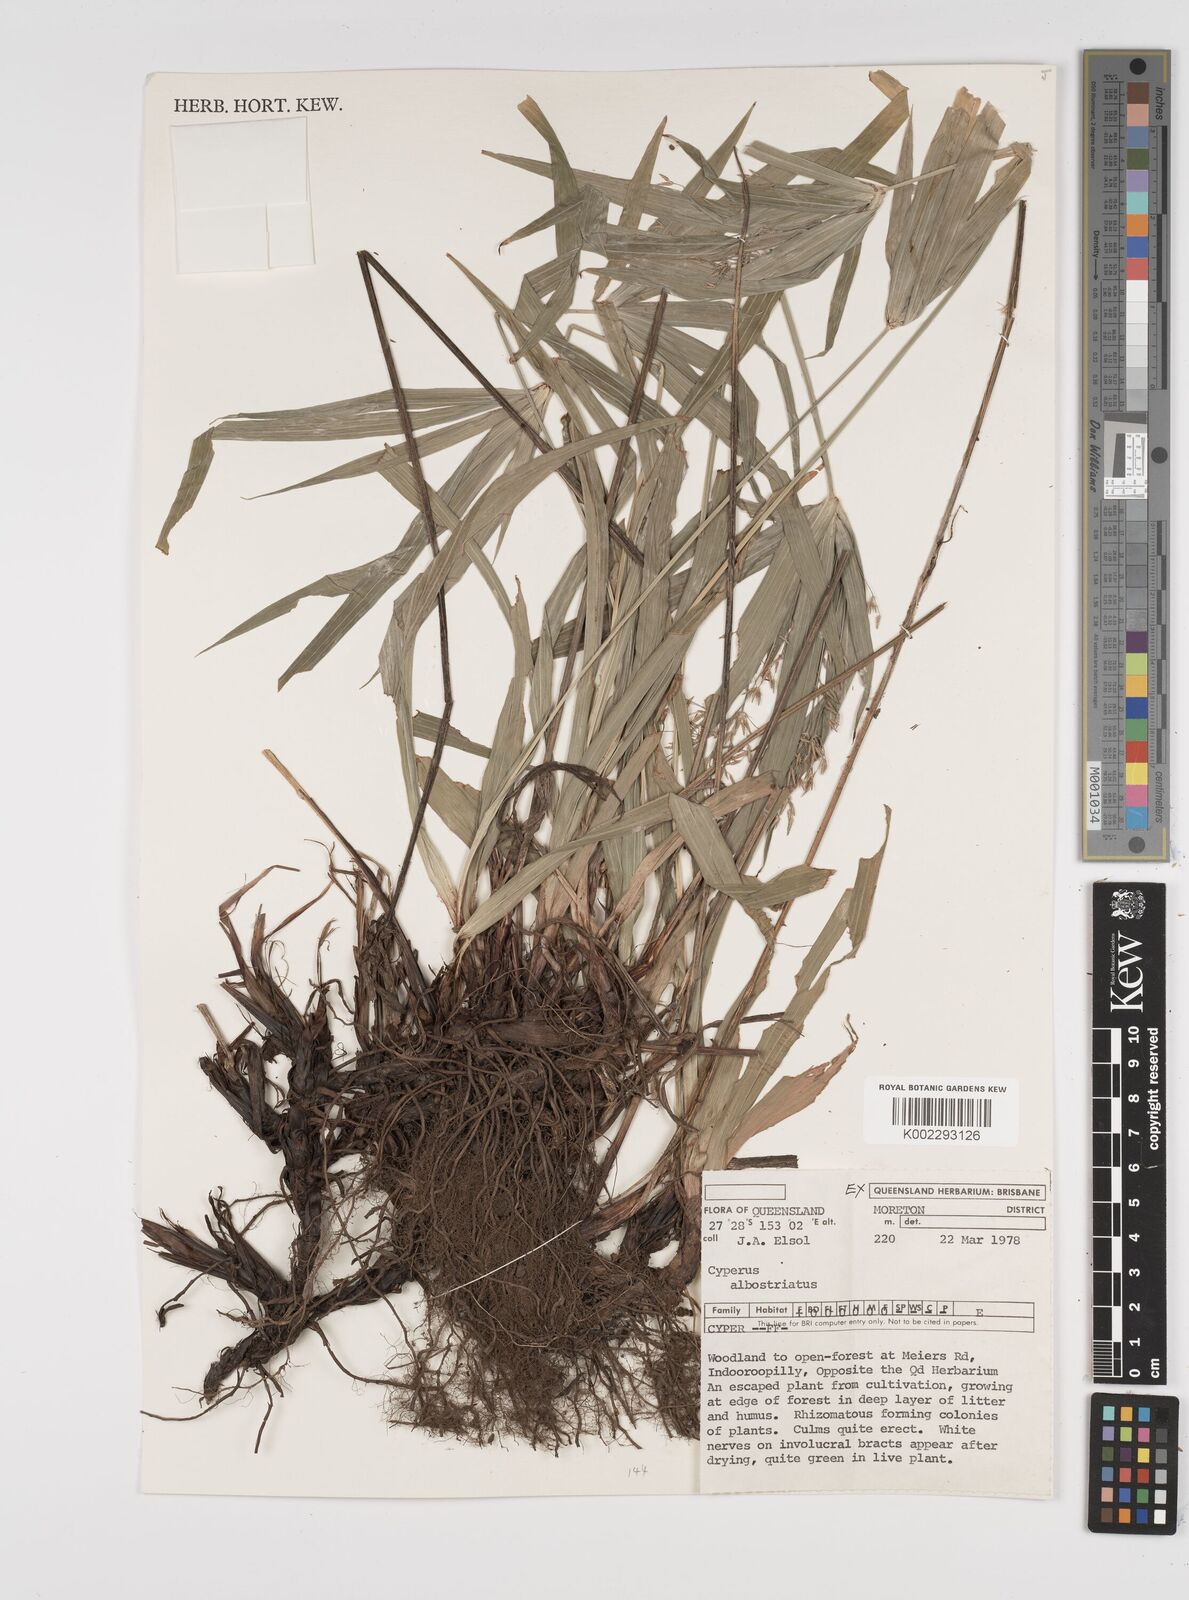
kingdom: Plantae
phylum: Tracheophyta
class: Liliopsida
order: Poales
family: Cyperaceae
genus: Cyperus
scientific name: Cyperus albostriatus
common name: Dwarf umbrella-grass
